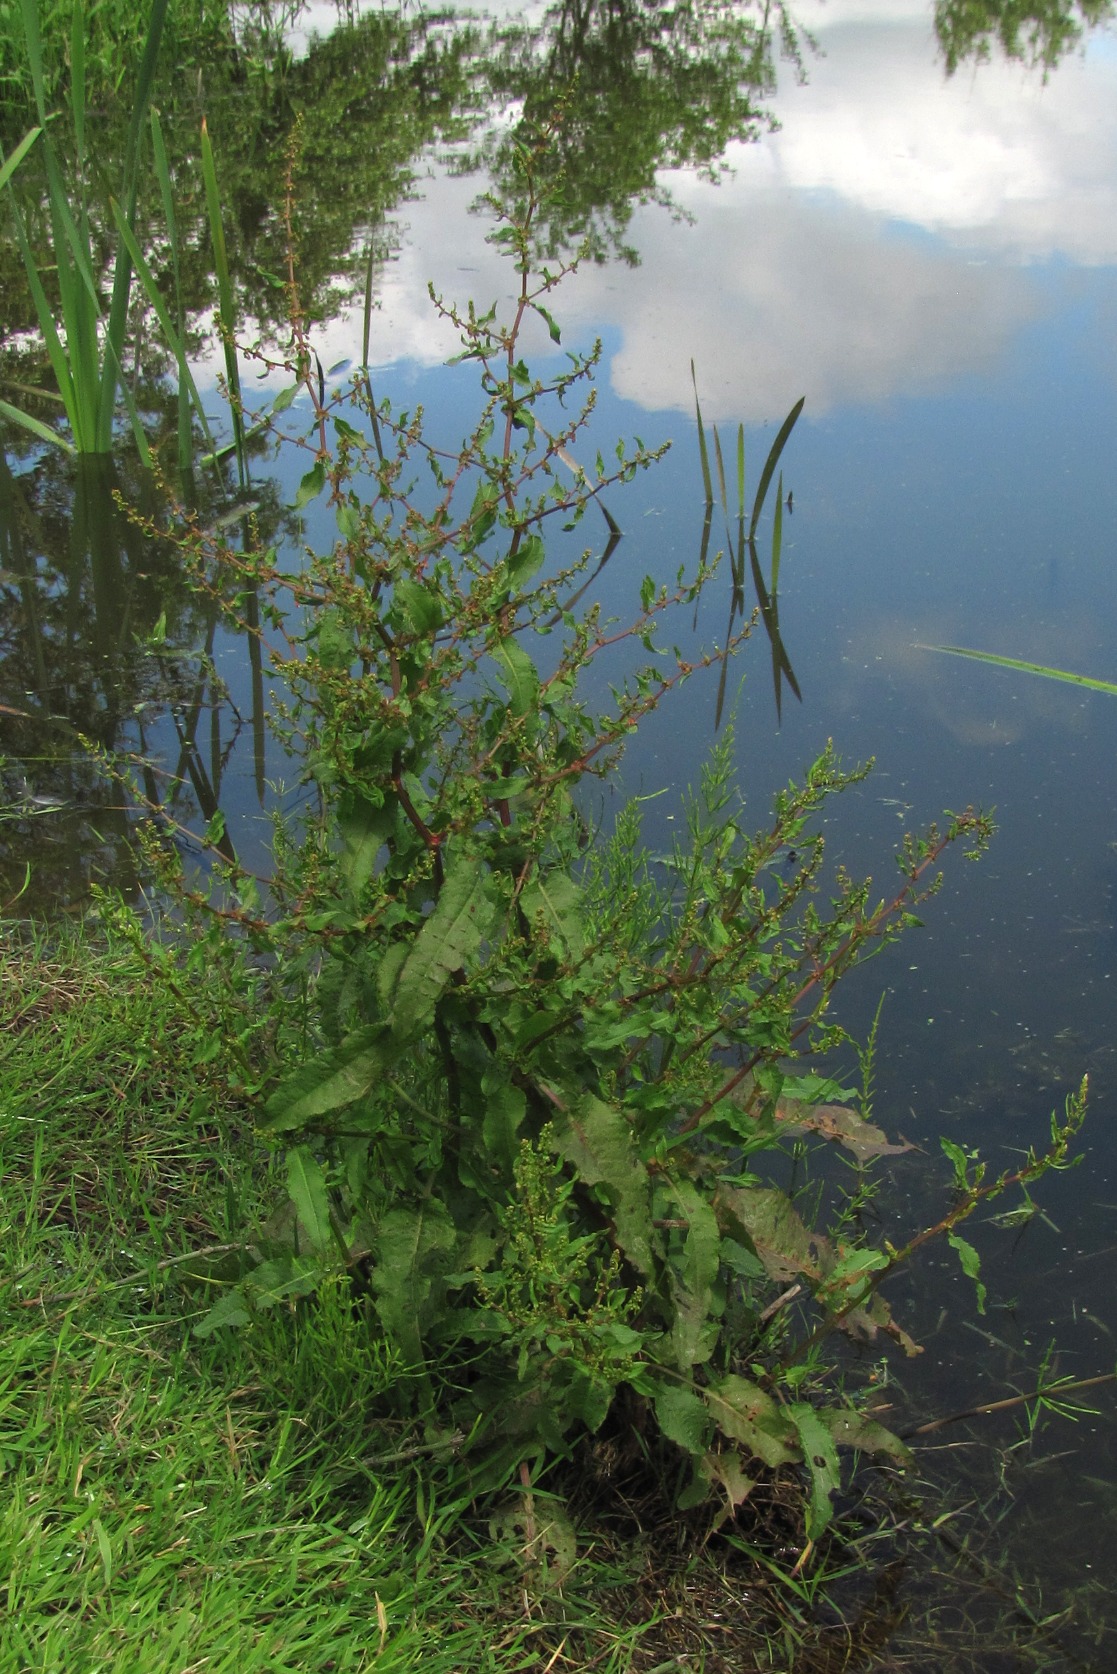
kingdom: Plantae
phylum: Tracheophyta
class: Magnoliopsida
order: Caryophyllales
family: Polygonaceae
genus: Rumex
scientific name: Rumex conglomeratus
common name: Nøgle-skræppe
